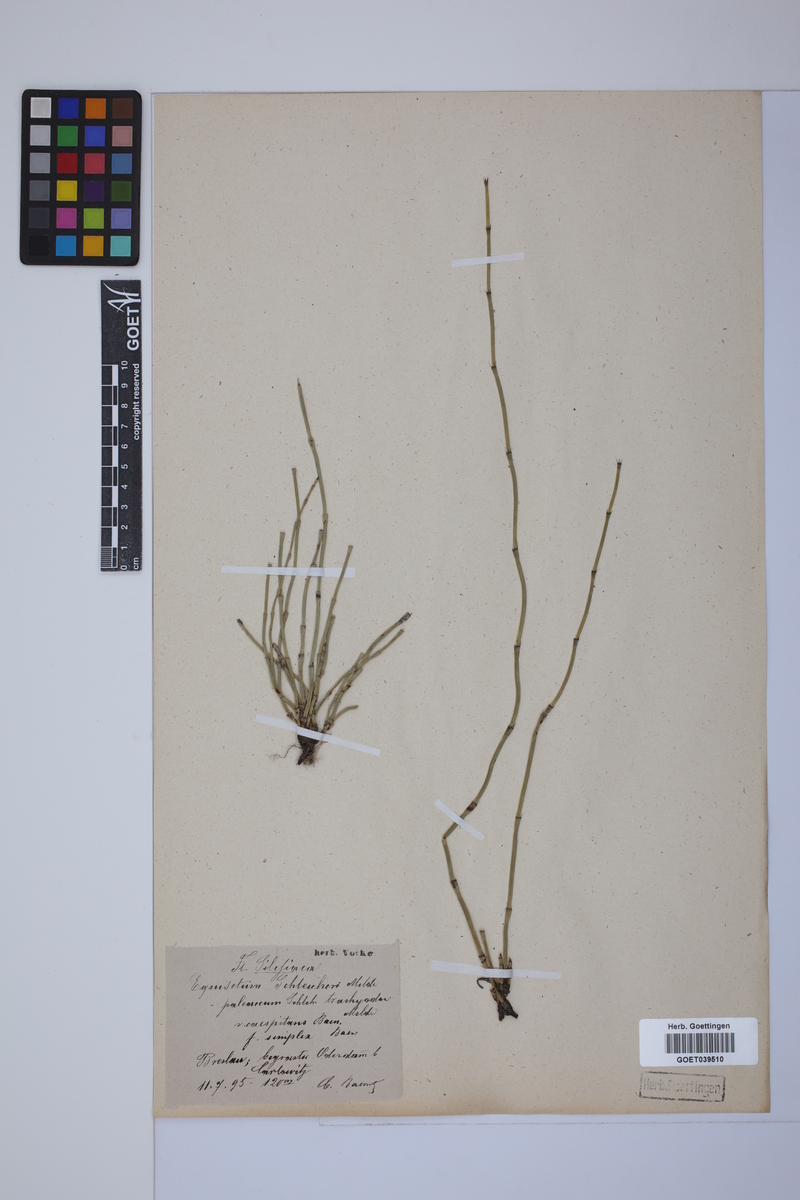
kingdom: Plantae
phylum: Tracheophyta
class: Polypodiopsida
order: Equisetales
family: Equisetaceae
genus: Equisetum
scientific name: Equisetum trachyodon
